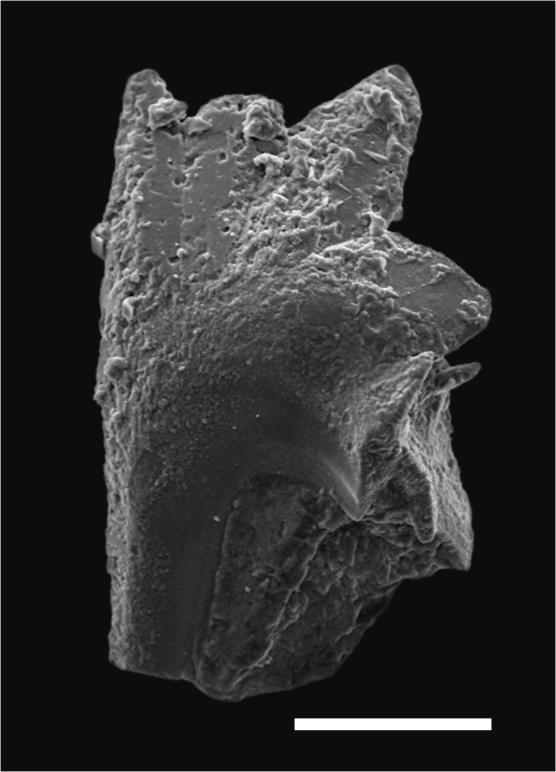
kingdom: Animalia
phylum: Chordata
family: Balognathidae
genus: Amorphognathus
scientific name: Amorphognathus
